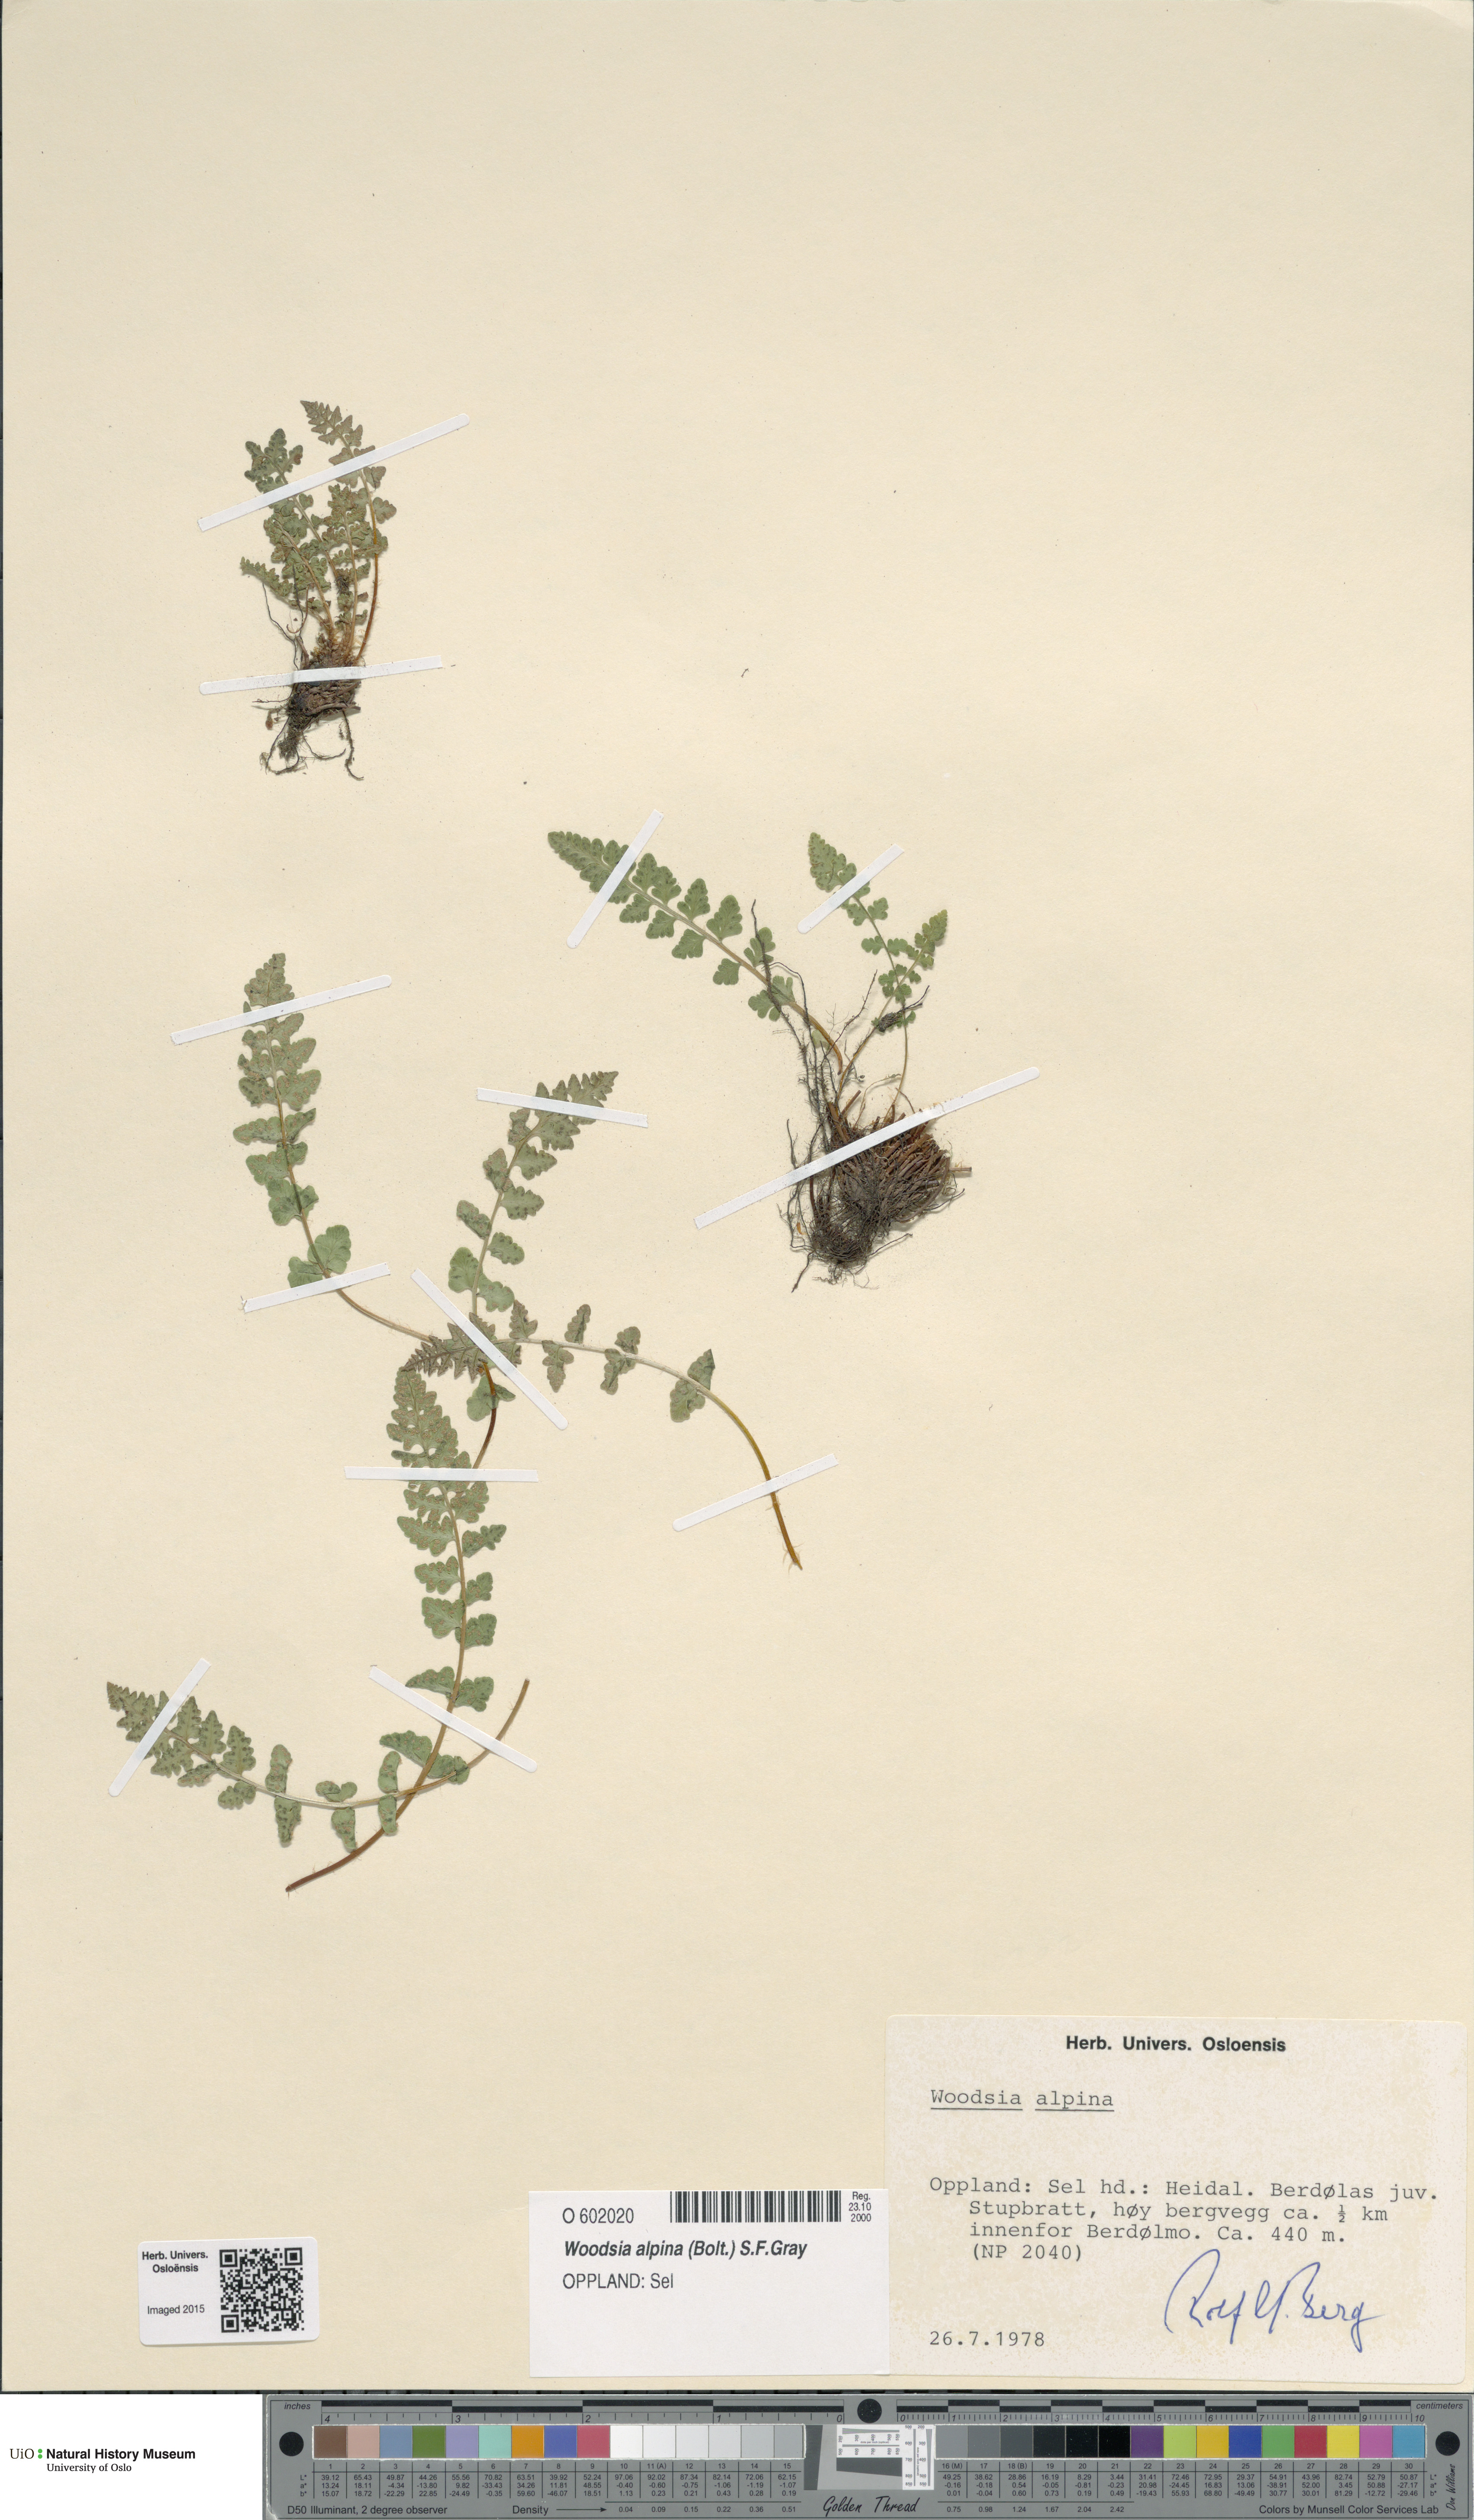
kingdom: Plantae
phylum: Tracheophyta
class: Polypodiopsida
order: Polypodiales
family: Woodsiaceae
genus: Woodsia
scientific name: Woodsia alpina
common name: Alpine woodsia
